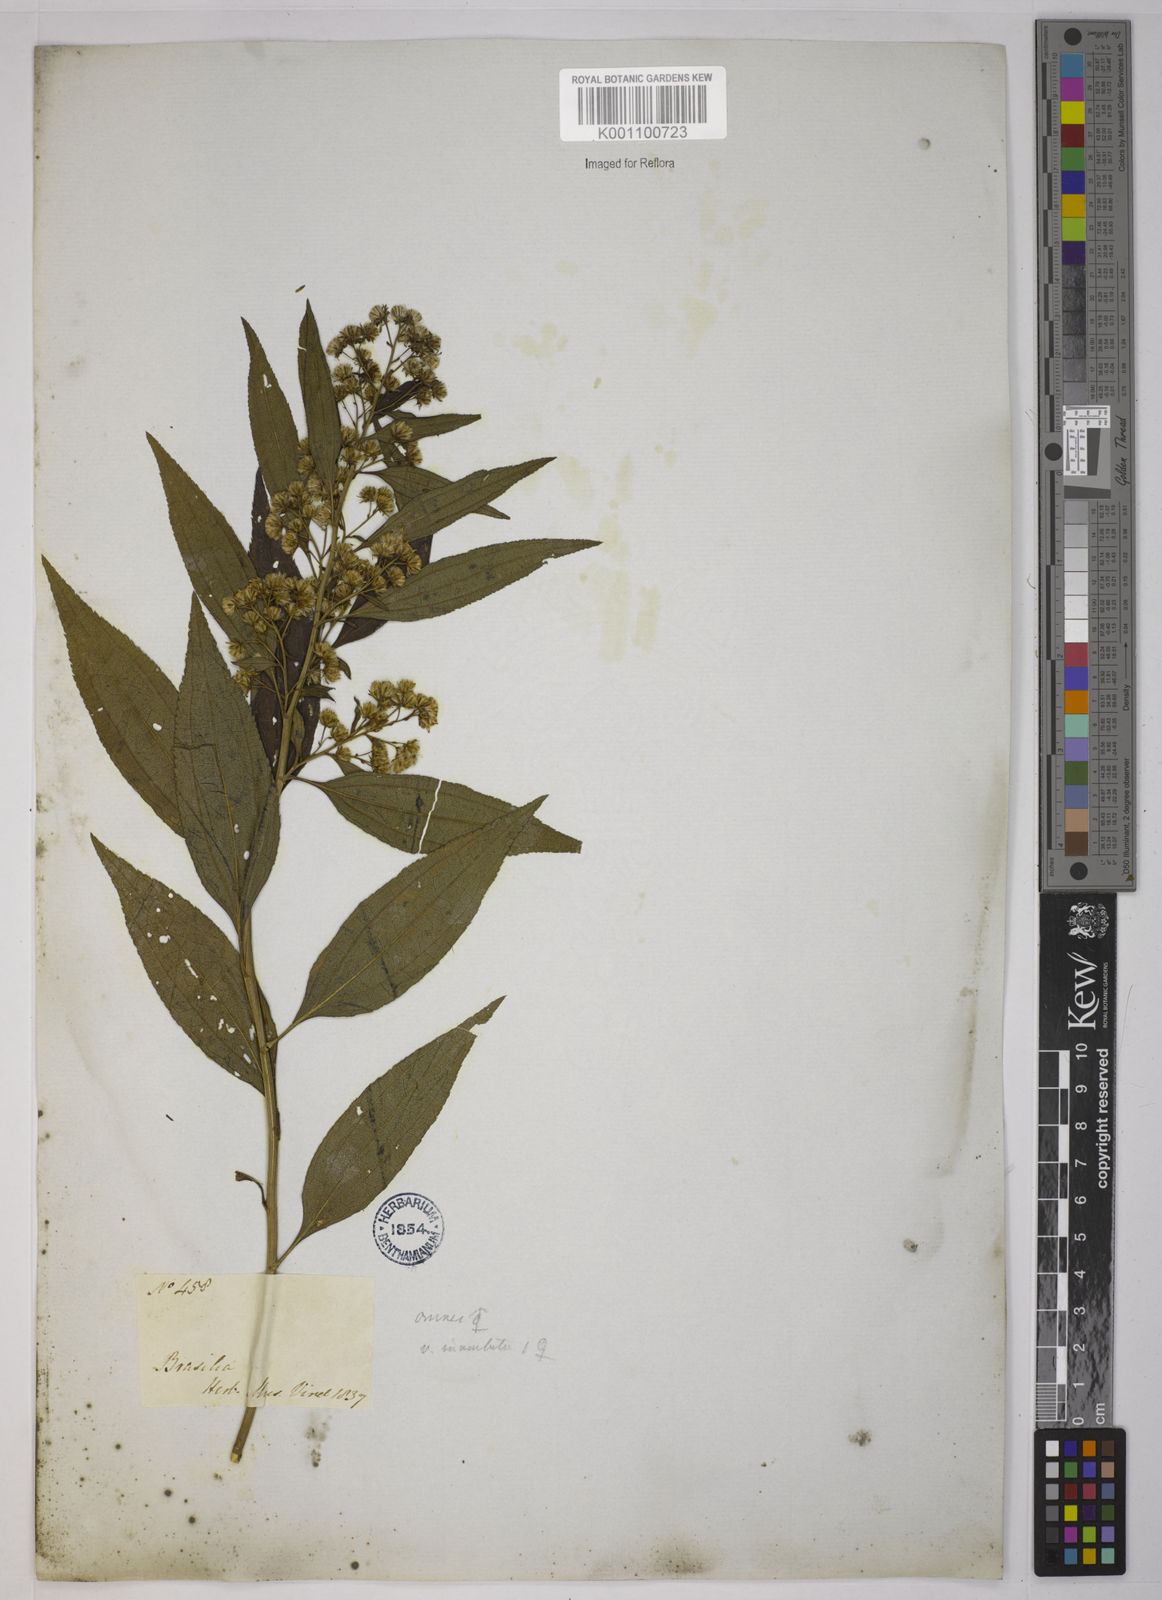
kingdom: Plantae
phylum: Tracheophyta
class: Magnoliopsida
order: Asterales
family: Asteraceae
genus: Baccharis
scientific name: Baccharis oxyodonta
